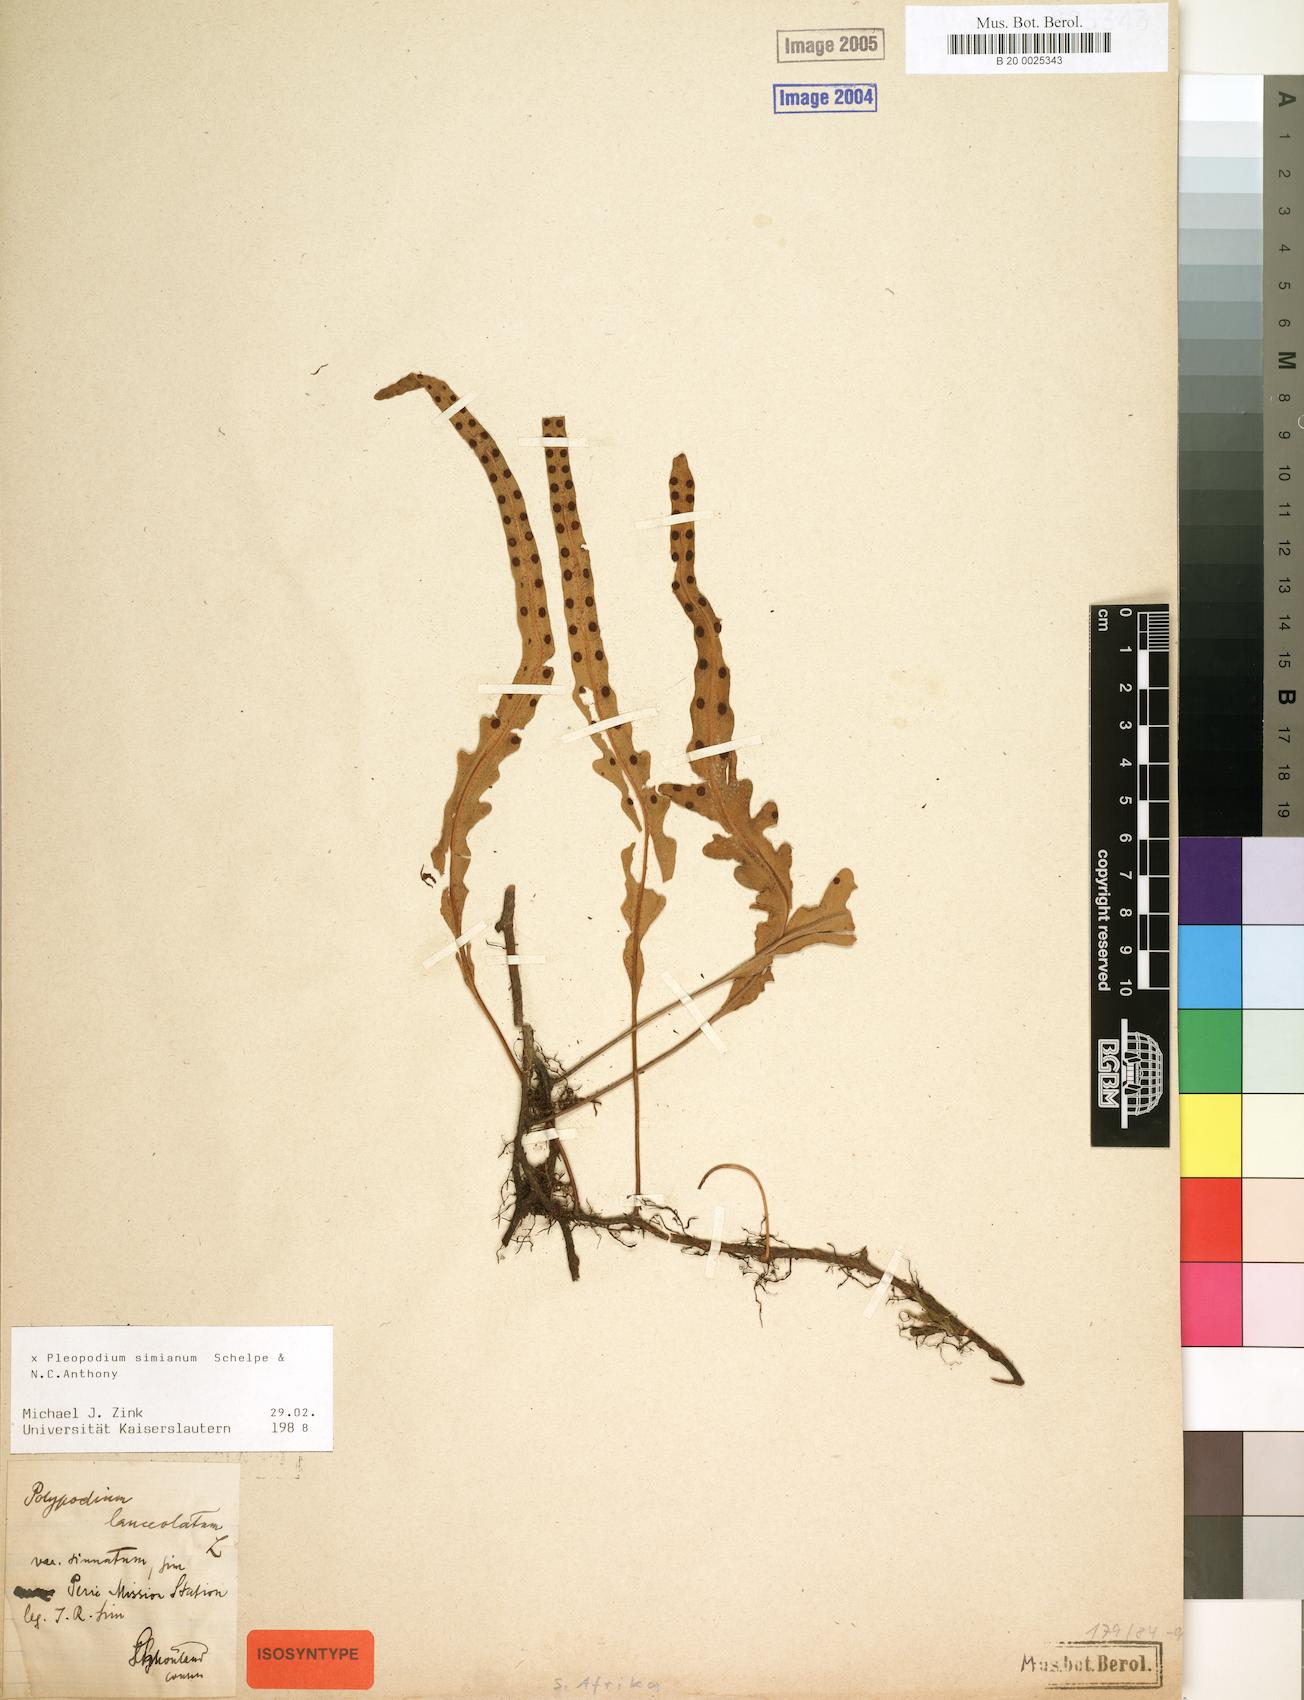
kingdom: Plantae
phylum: Tracheophyta
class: Polypodiopsida
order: Polypodiales
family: Polypodiaceae
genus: Pleopeltis
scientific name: Pleopeltis simiana
